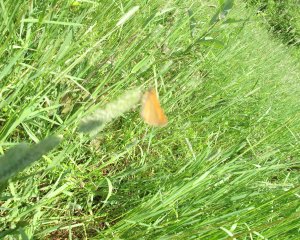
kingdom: Animalia
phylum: Arthropoda
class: Insecta
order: Lepidoptera
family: Hesperiidae
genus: Thymelicus
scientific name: Thymelicus lineola
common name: European Skipper
